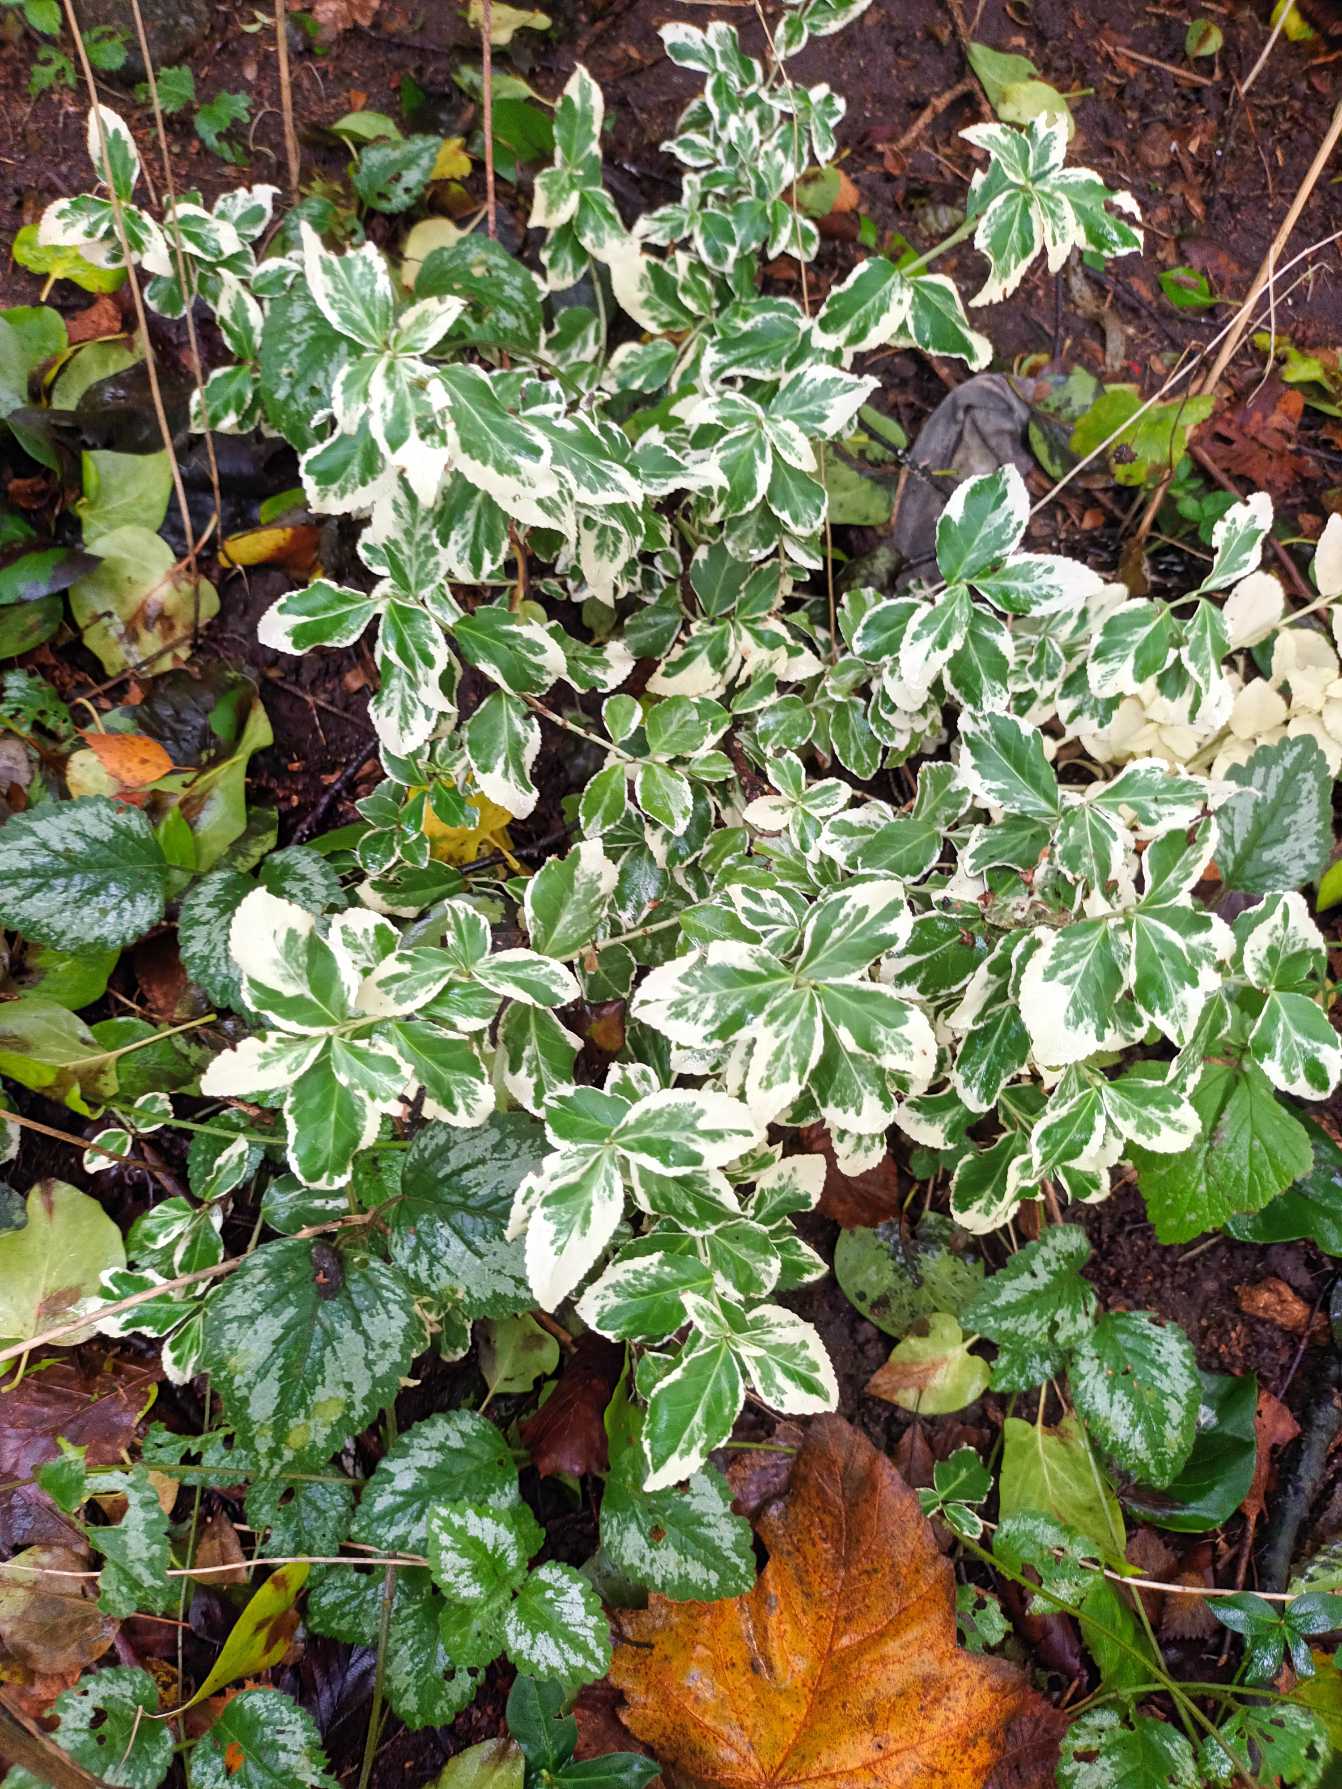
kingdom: Plantae
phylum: Tracheophyta
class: Magnoliopsida
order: Celastrales
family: Celastraceae
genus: Euonymus
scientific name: Euonymus japonicus
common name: Japansk benved
